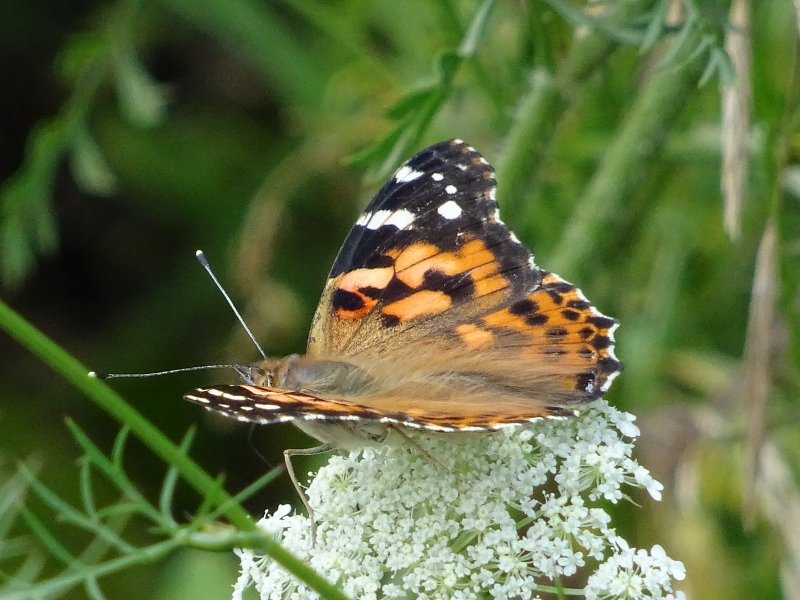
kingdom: Animalia
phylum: Arthropoda
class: Insecta
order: Lepidoptera
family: Nymphalidae
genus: Vanessa
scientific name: Vanessa cardui
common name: Painted Lady
